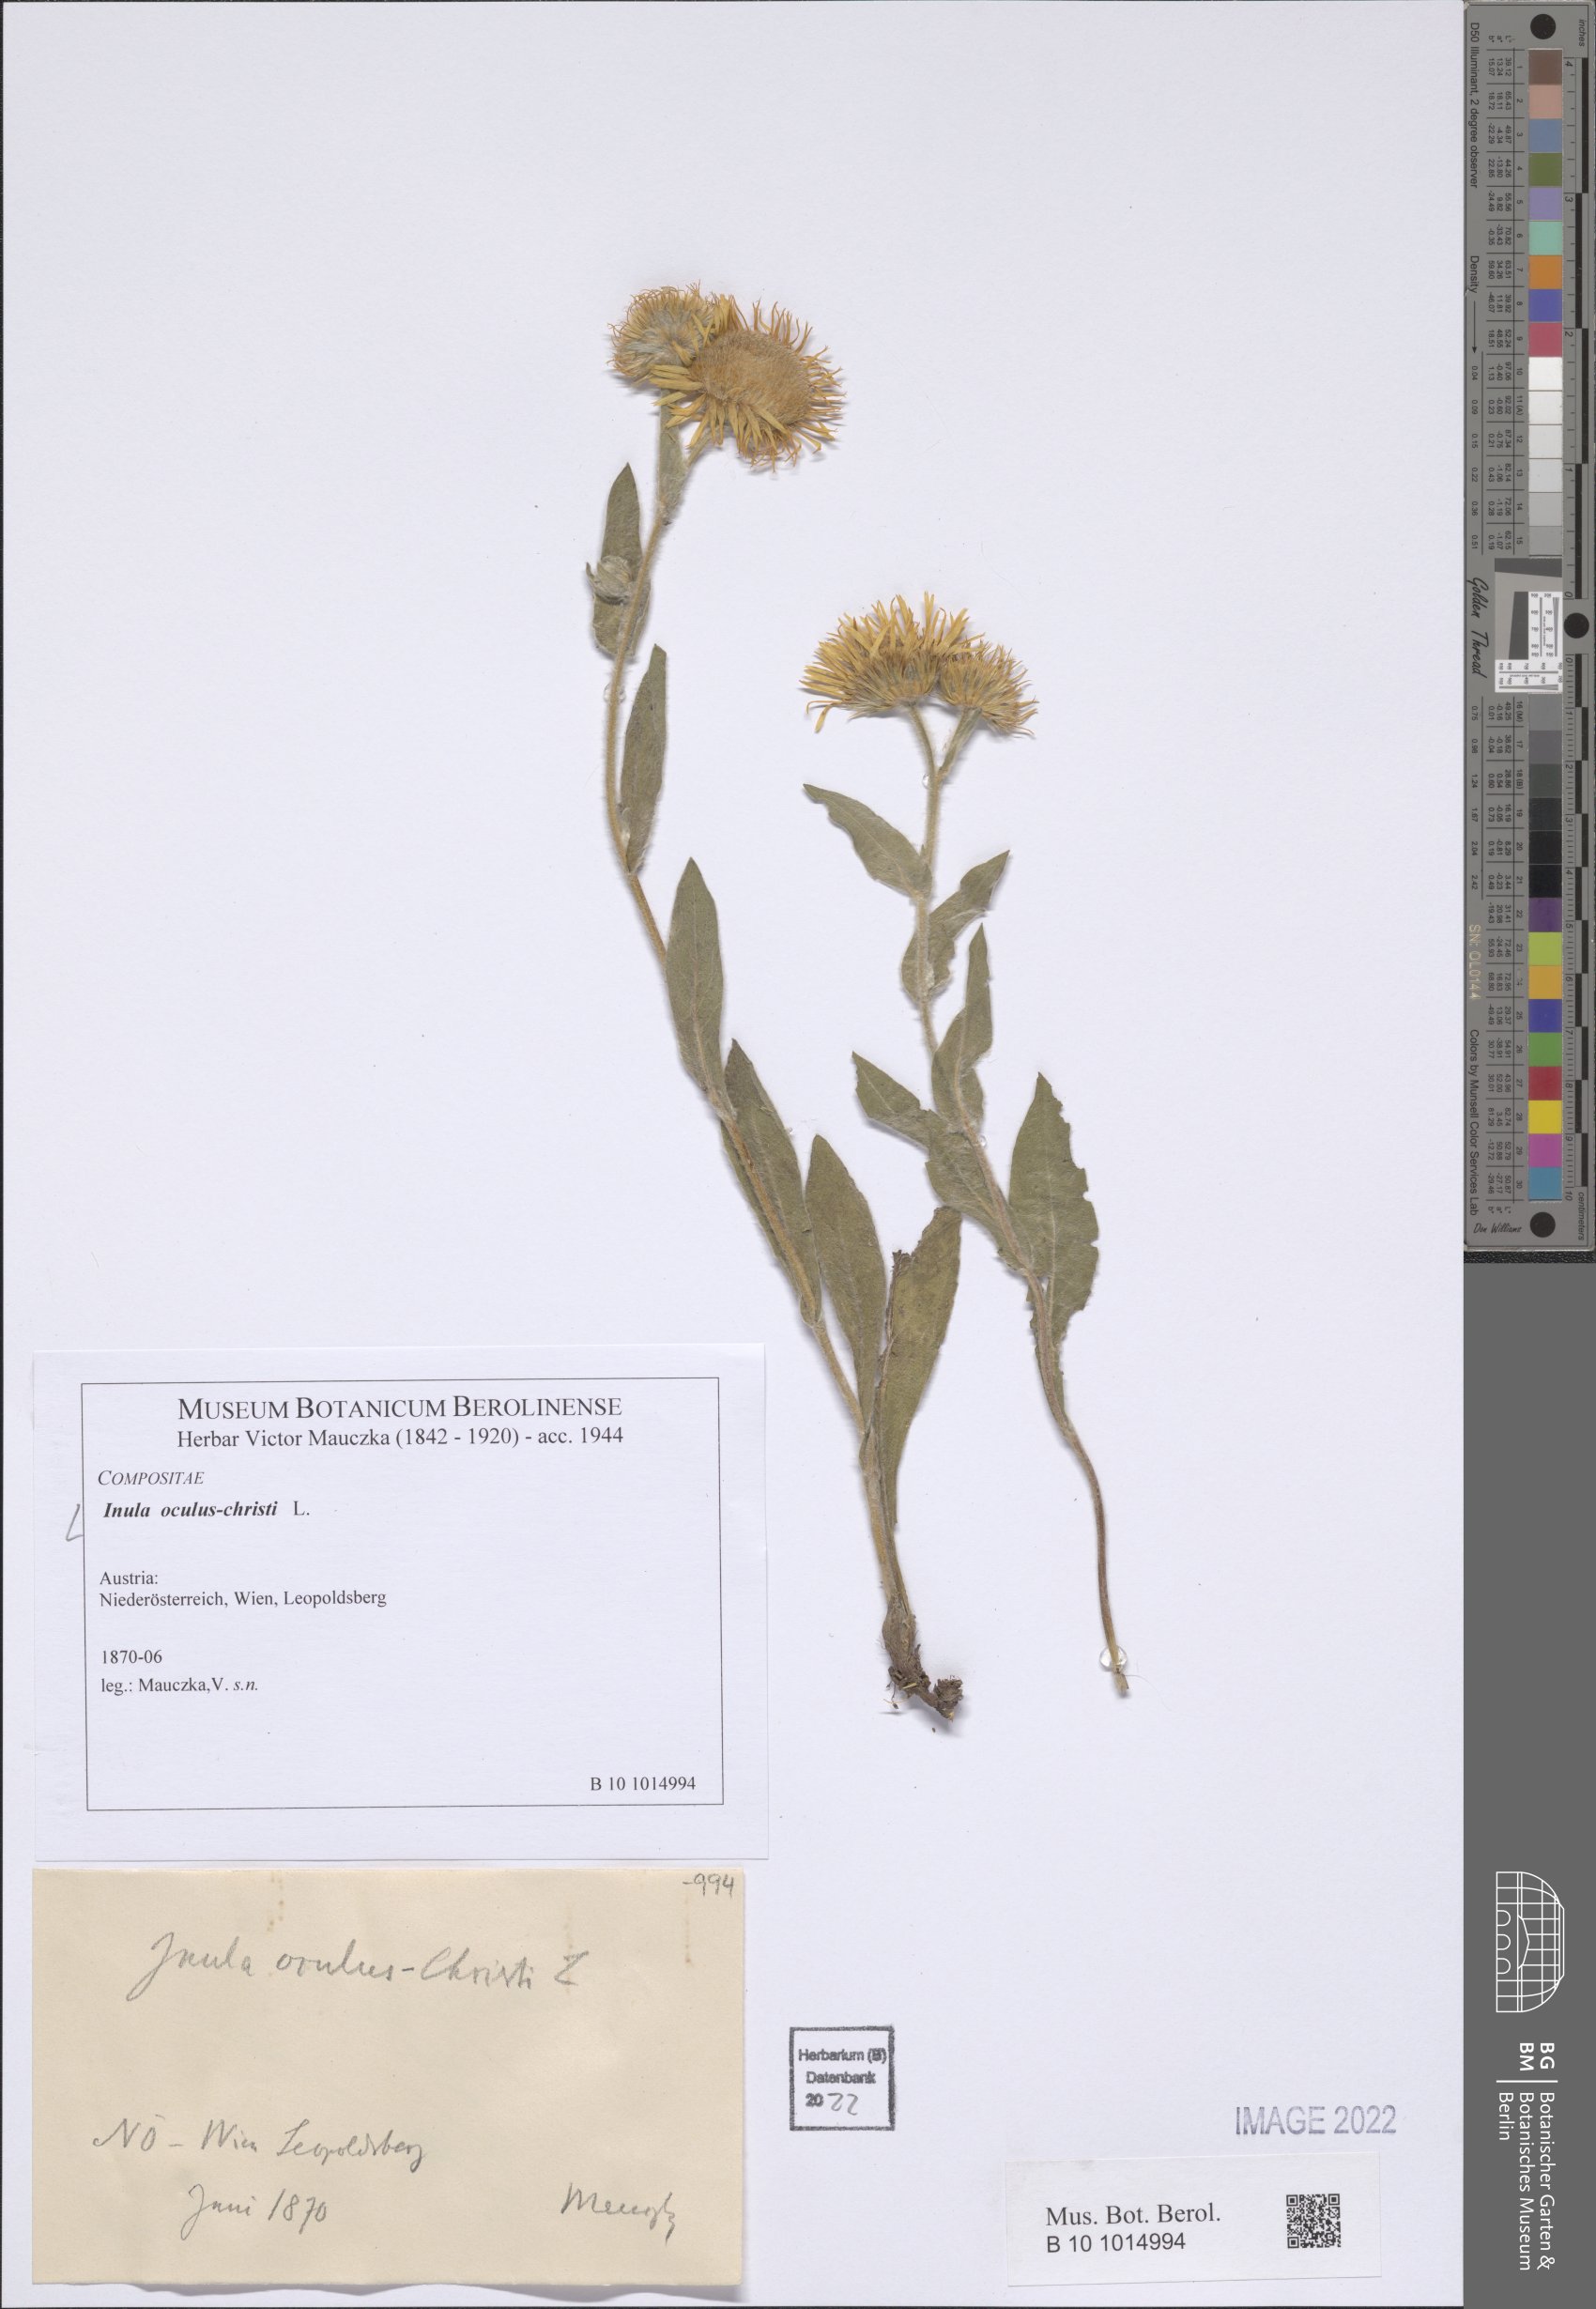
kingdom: Plantae
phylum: Tracheophyta
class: Magnoliopsida
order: Asterales
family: Asteraceae
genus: Pentanema
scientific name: Pentanema oculus-christi
